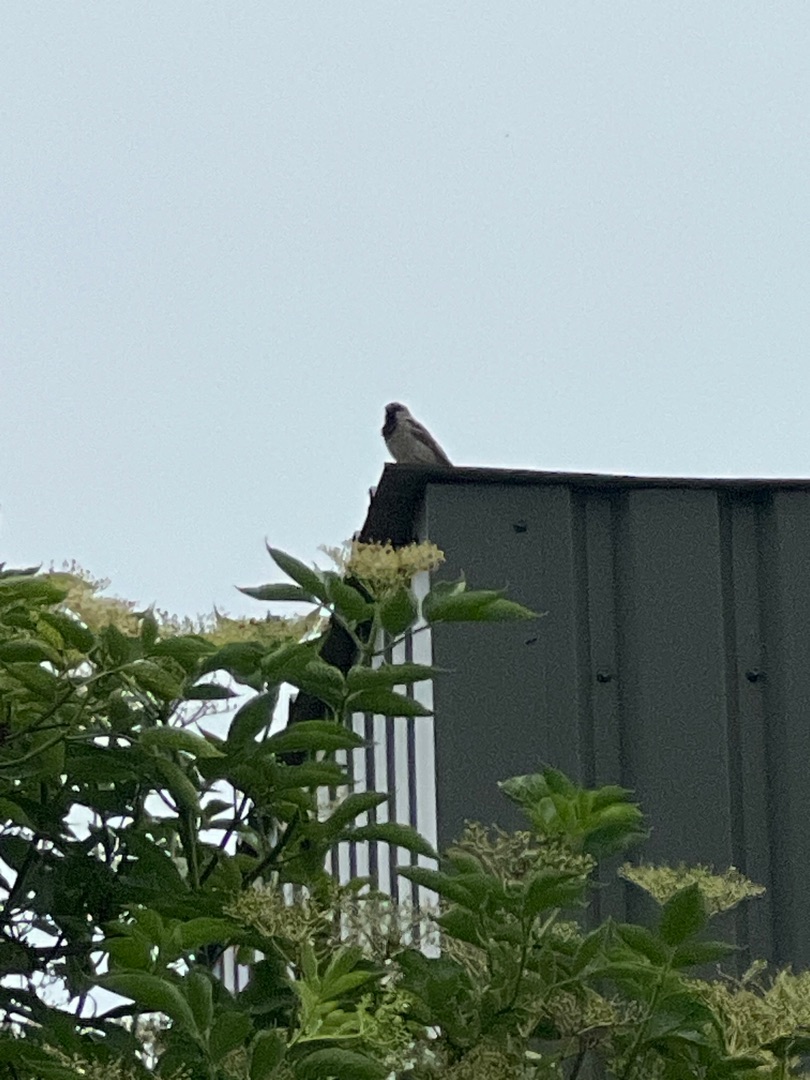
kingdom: Animalia
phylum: Chordata
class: Aves
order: Passeriformes
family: Passeridae
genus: Passer
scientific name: Passer domesticus
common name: Gråspurv
